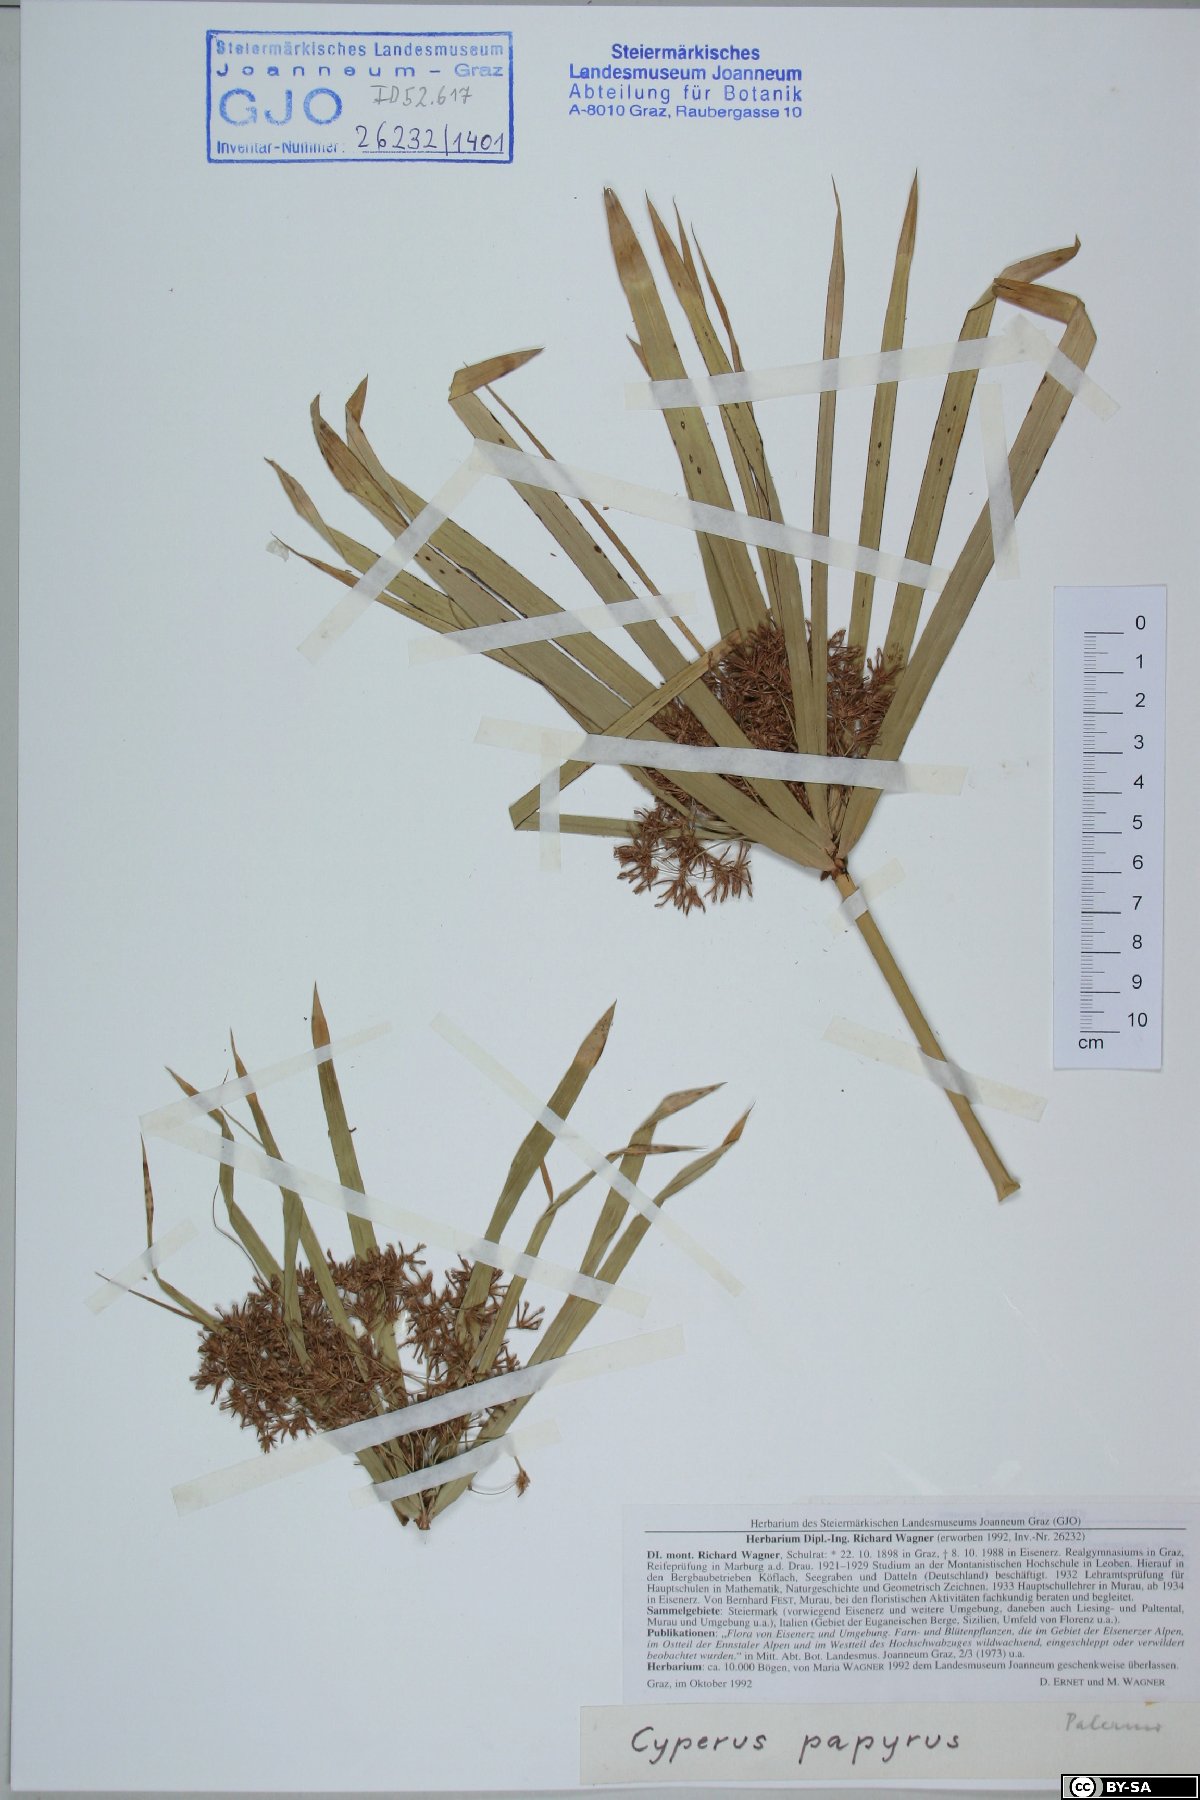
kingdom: Plantae
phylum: Tracheophyta
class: Liliopsida
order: Poales
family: Cyperaceae
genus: Cyperus
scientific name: Cyperus papyrus
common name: Papyrus
